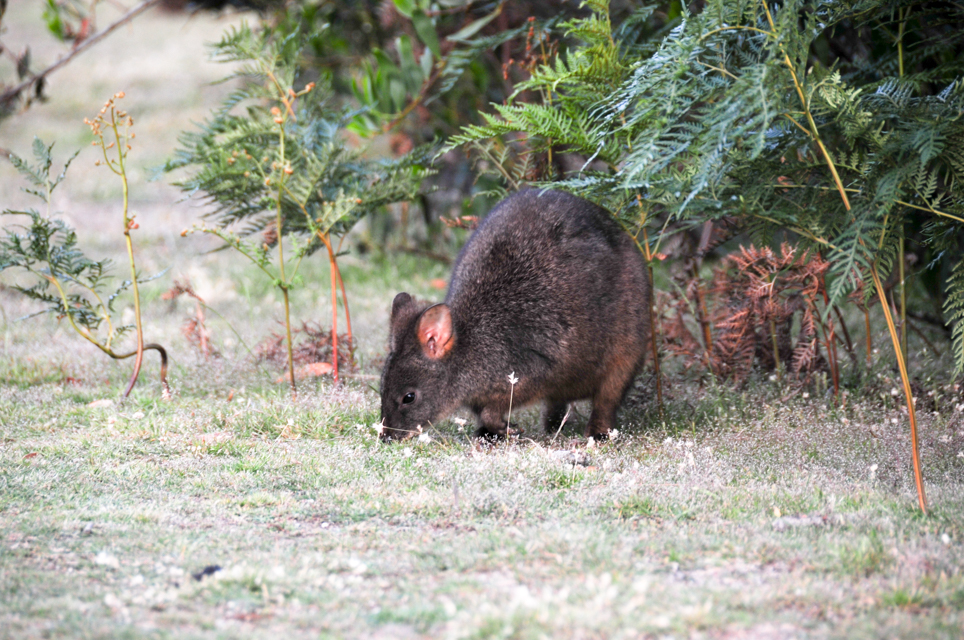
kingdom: Animalia
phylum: Chordata
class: Mammalia
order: Diprotodontia
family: Macropodidae
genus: Thylogale
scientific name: Thylogale billardierii
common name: Tasmanian pademelon
